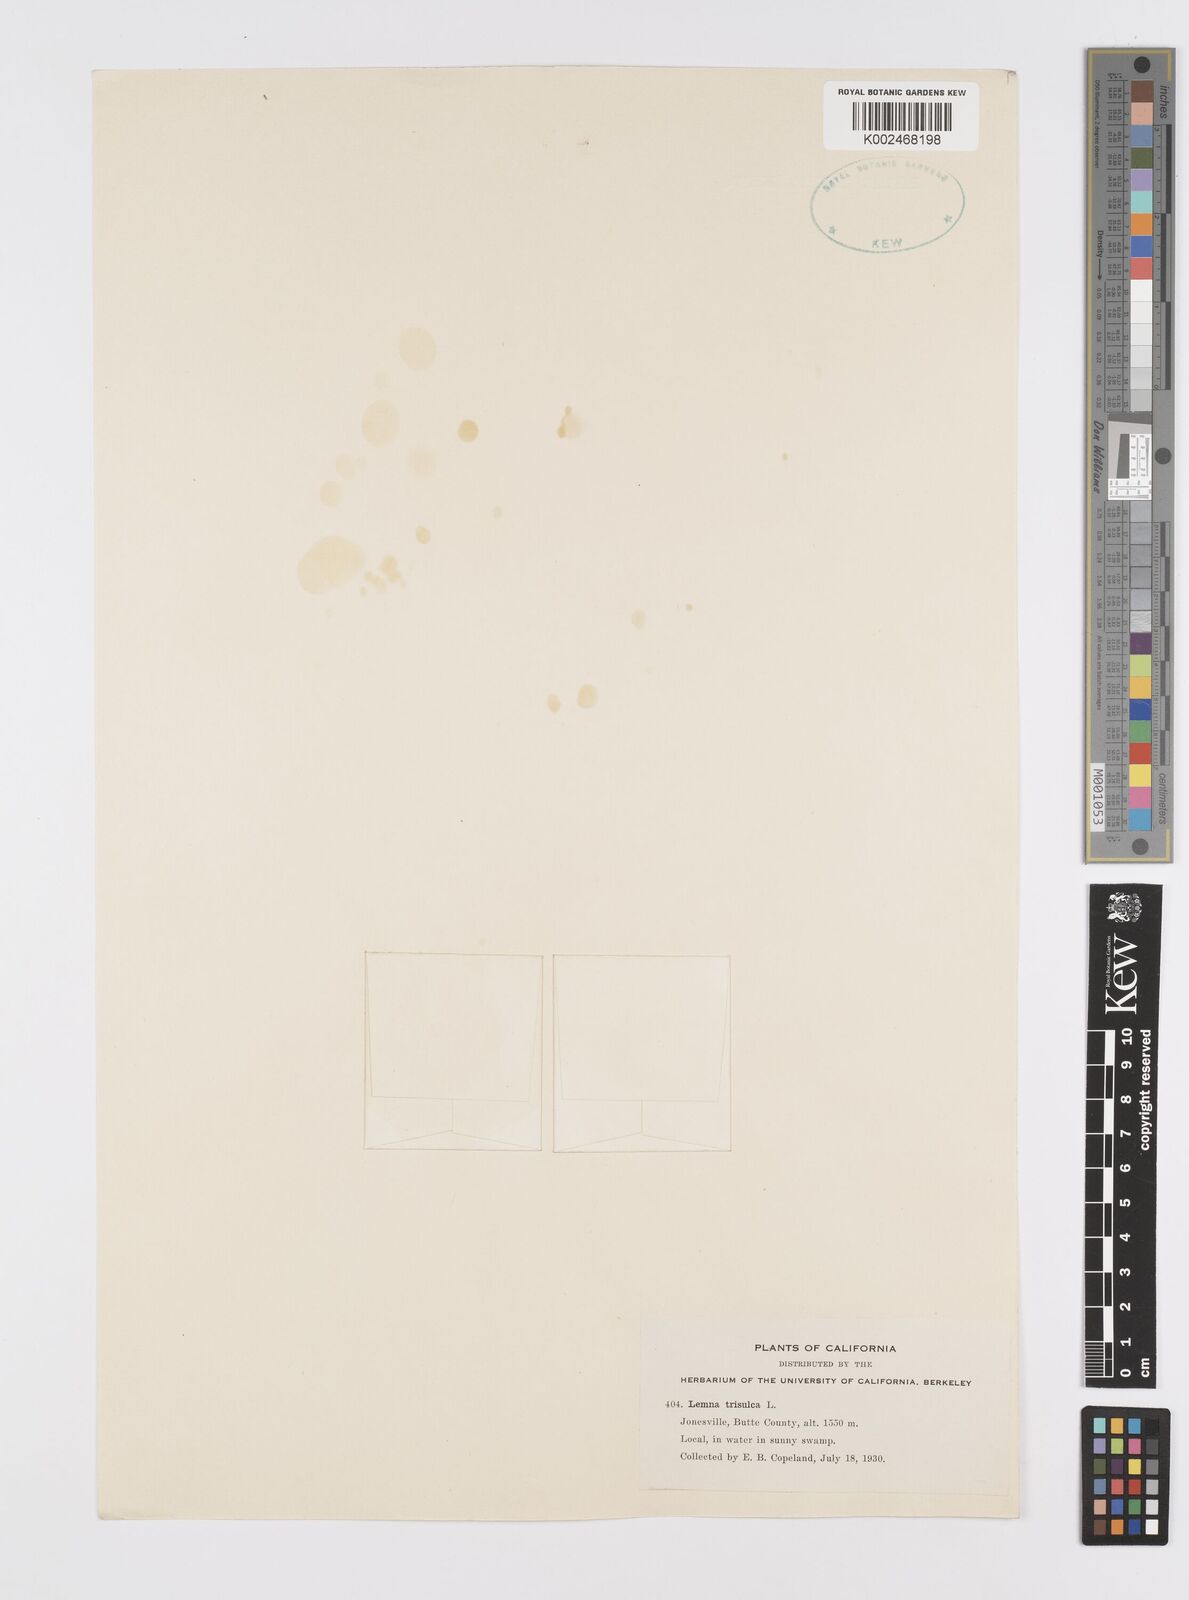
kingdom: Plantae
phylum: Tracheophyta
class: Liliopsida
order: Alismatales
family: Araceae
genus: Lemna
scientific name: Lemna trisulca
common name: Ivy-leaved duckweed
